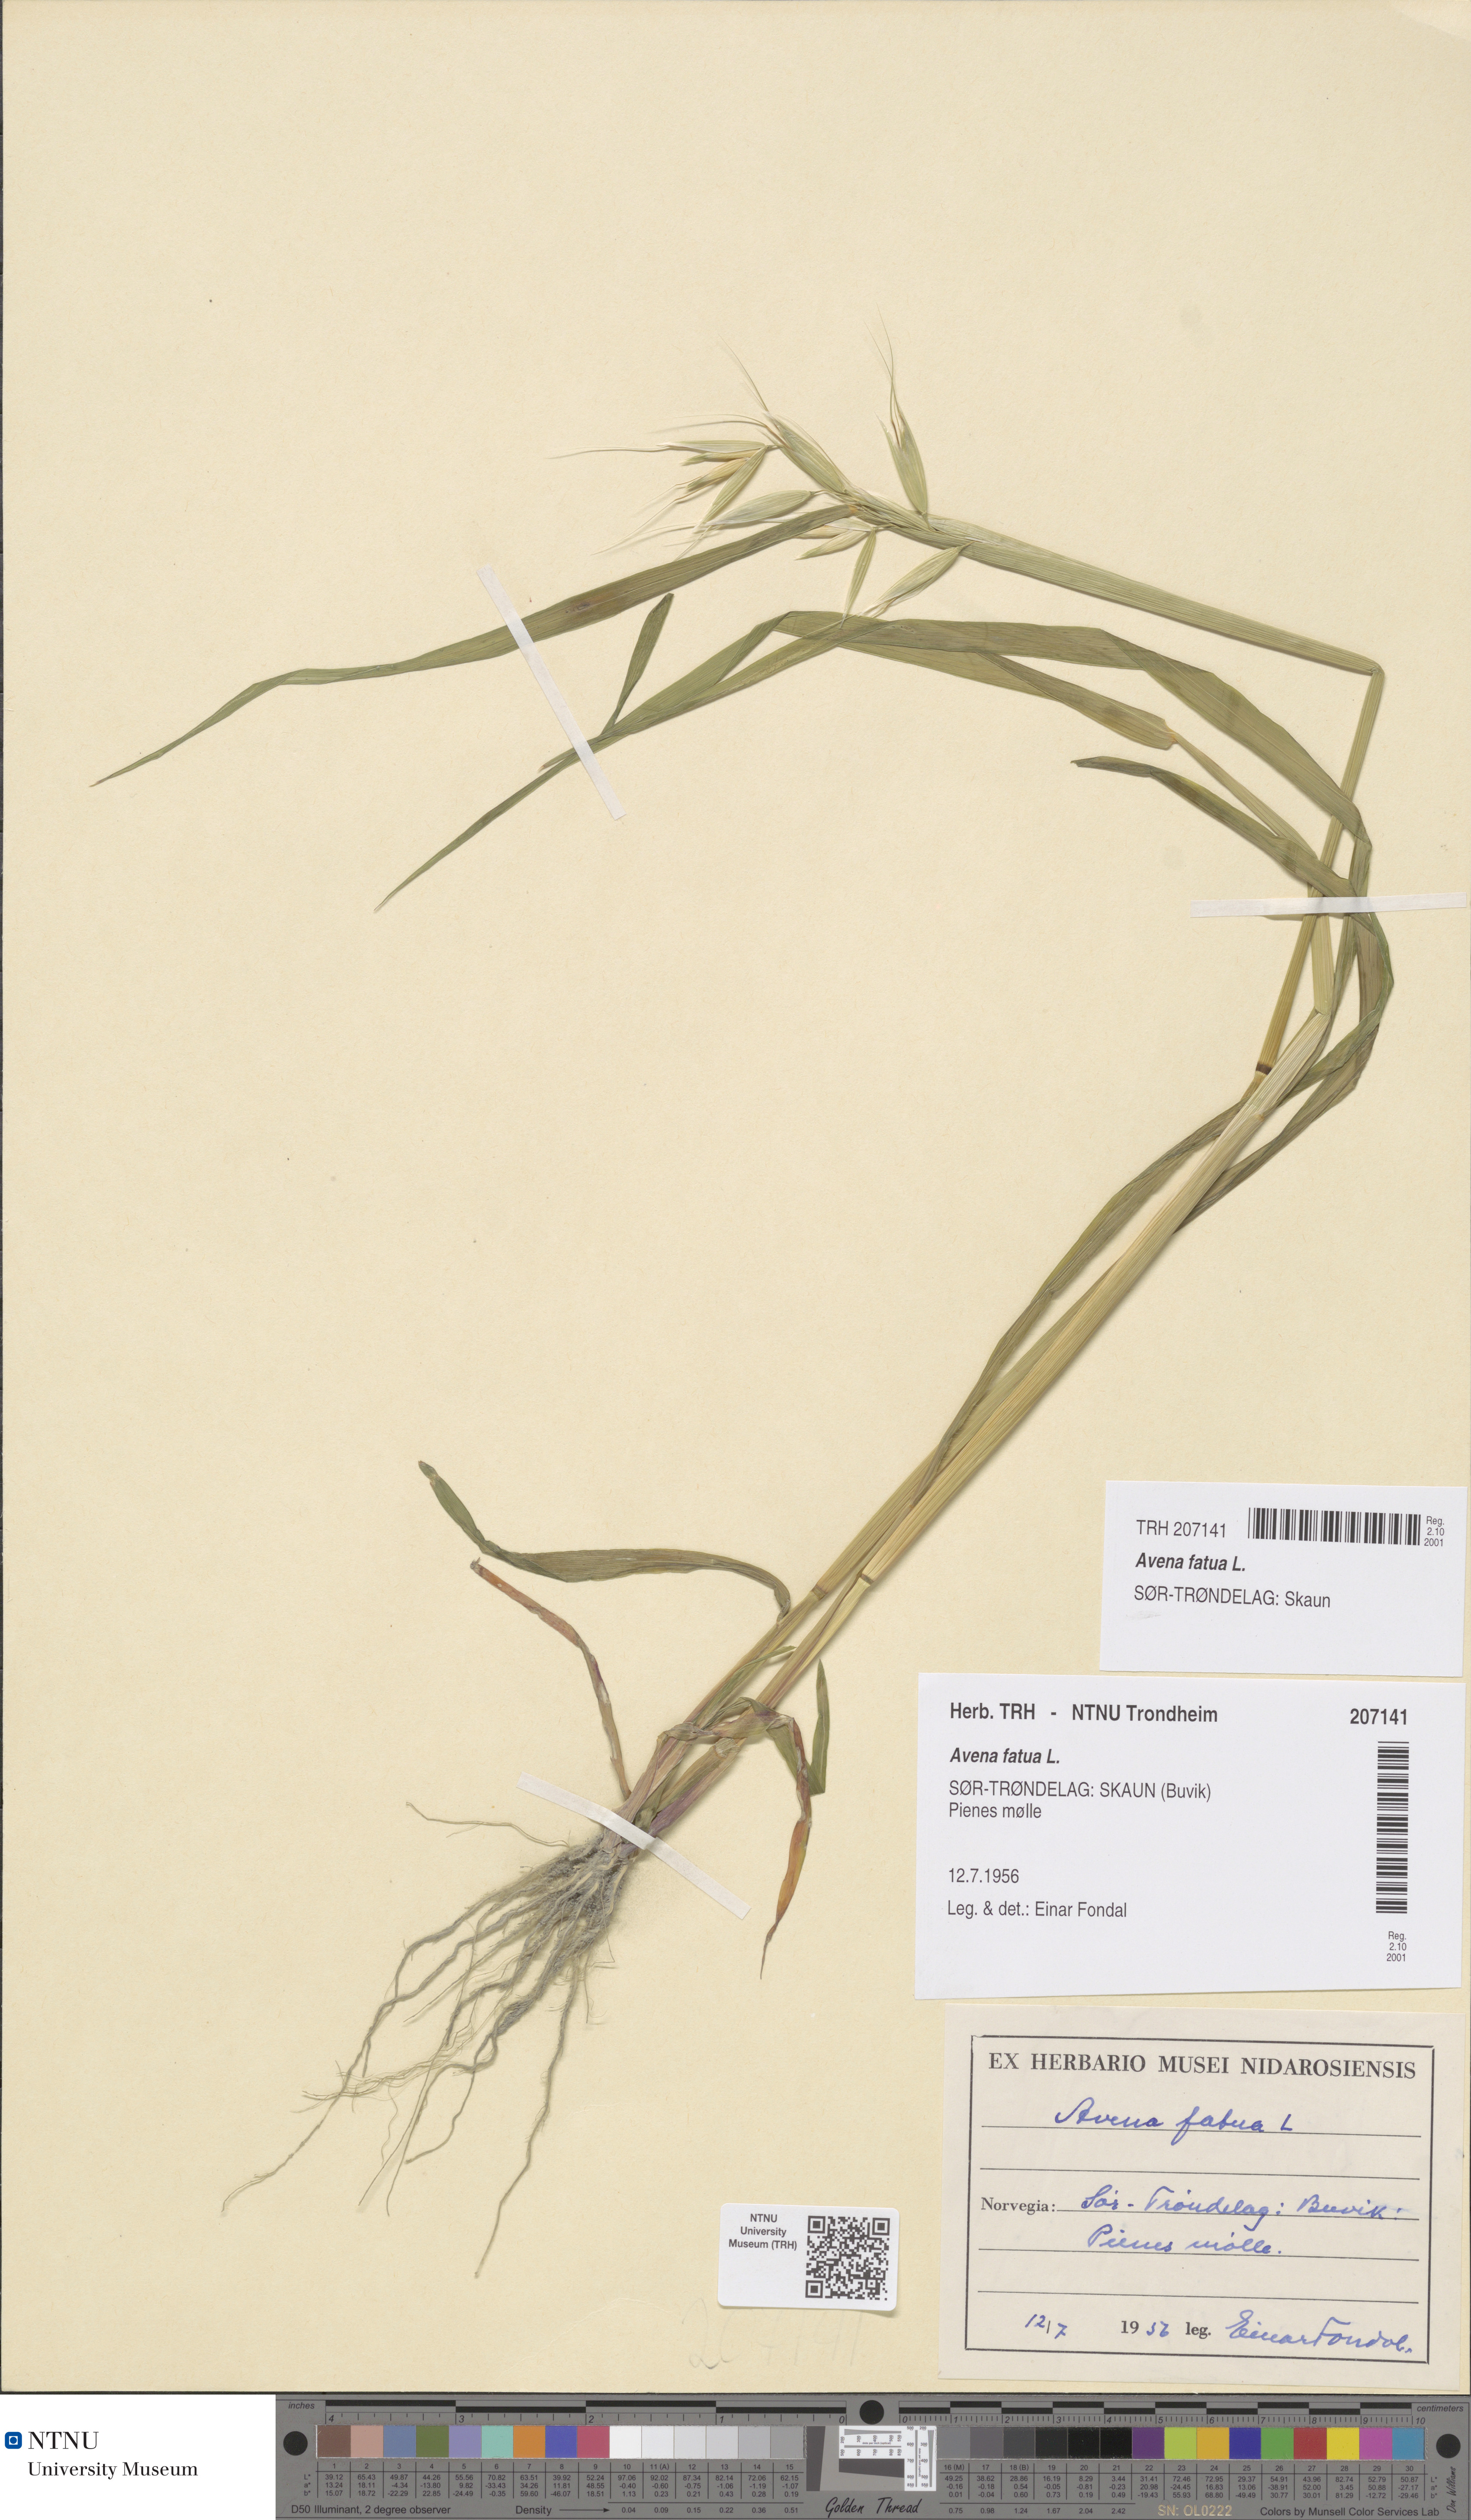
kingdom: Plantae
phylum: Tracheophyta
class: Liliopsida
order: Poales
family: Poaceae
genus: Avena
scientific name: Avena fatua
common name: Wild oat
